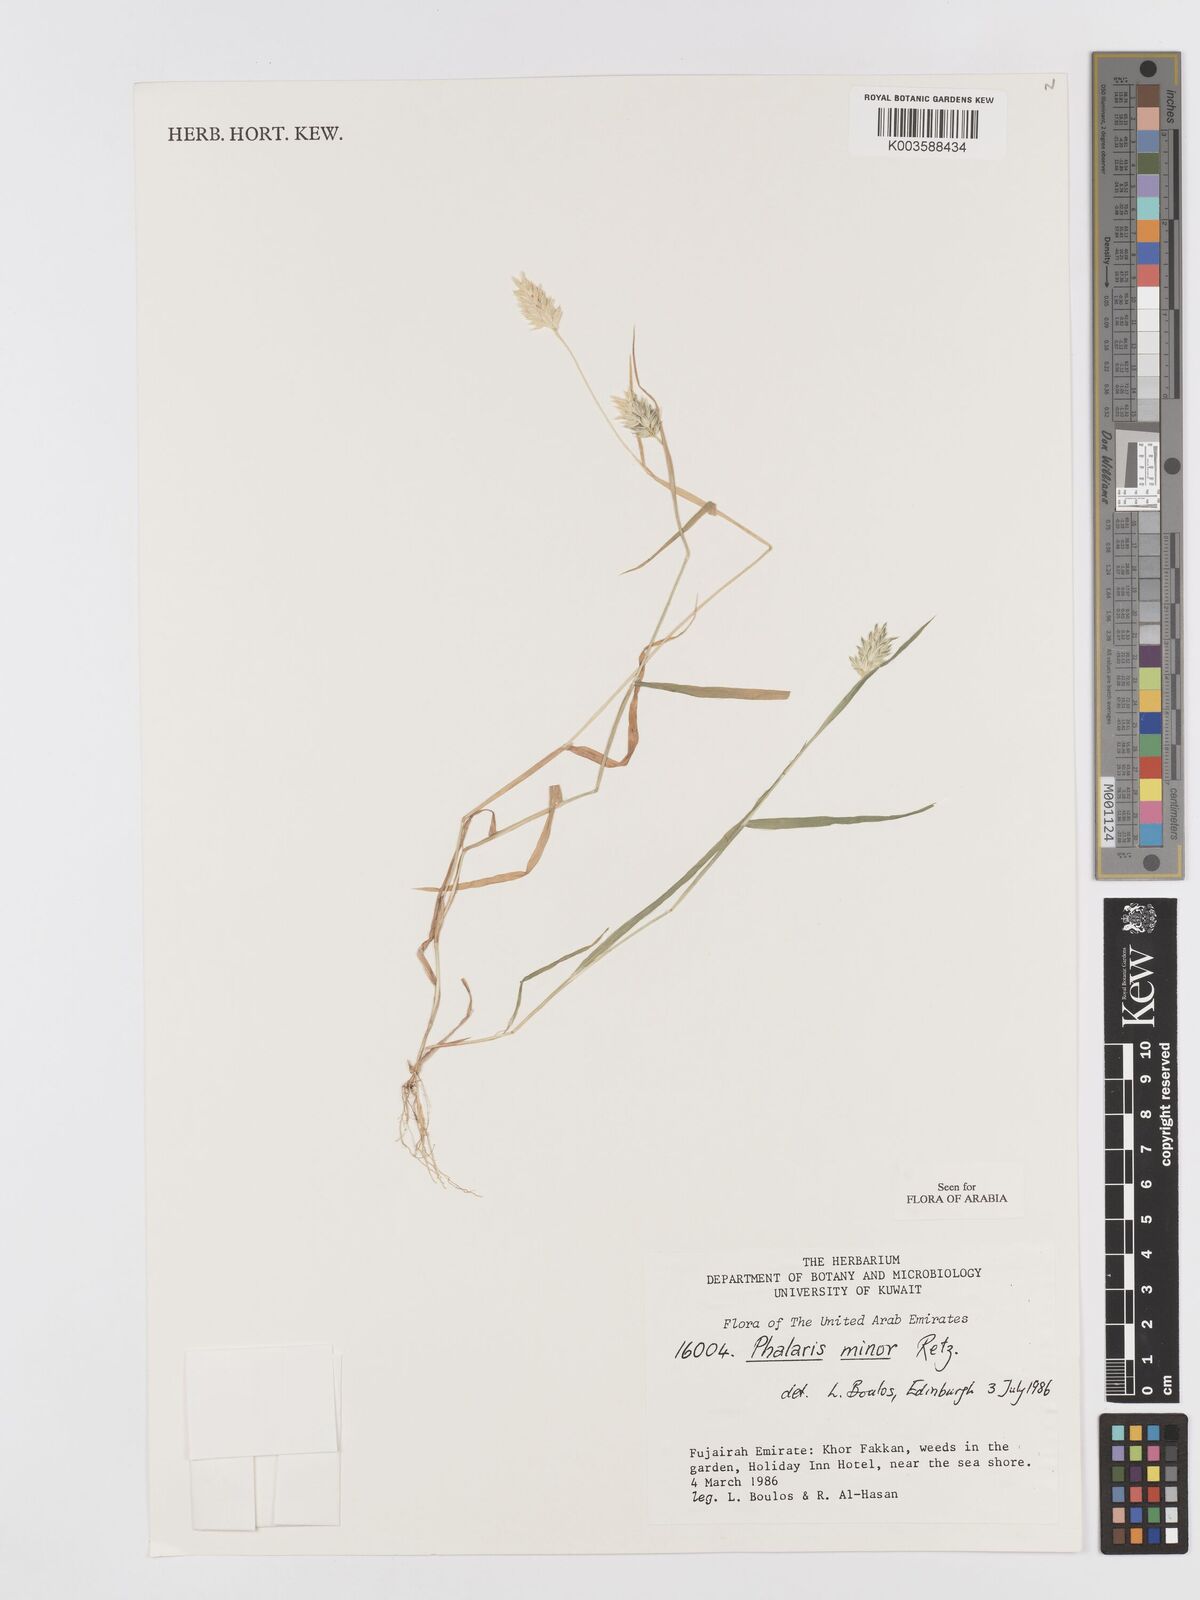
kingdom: Plantae
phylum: Tracheophyta
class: Liliopsida
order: Poales
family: Poaceae
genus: Phalaris
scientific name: Phalaris minor
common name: Littleseed canarygrass
